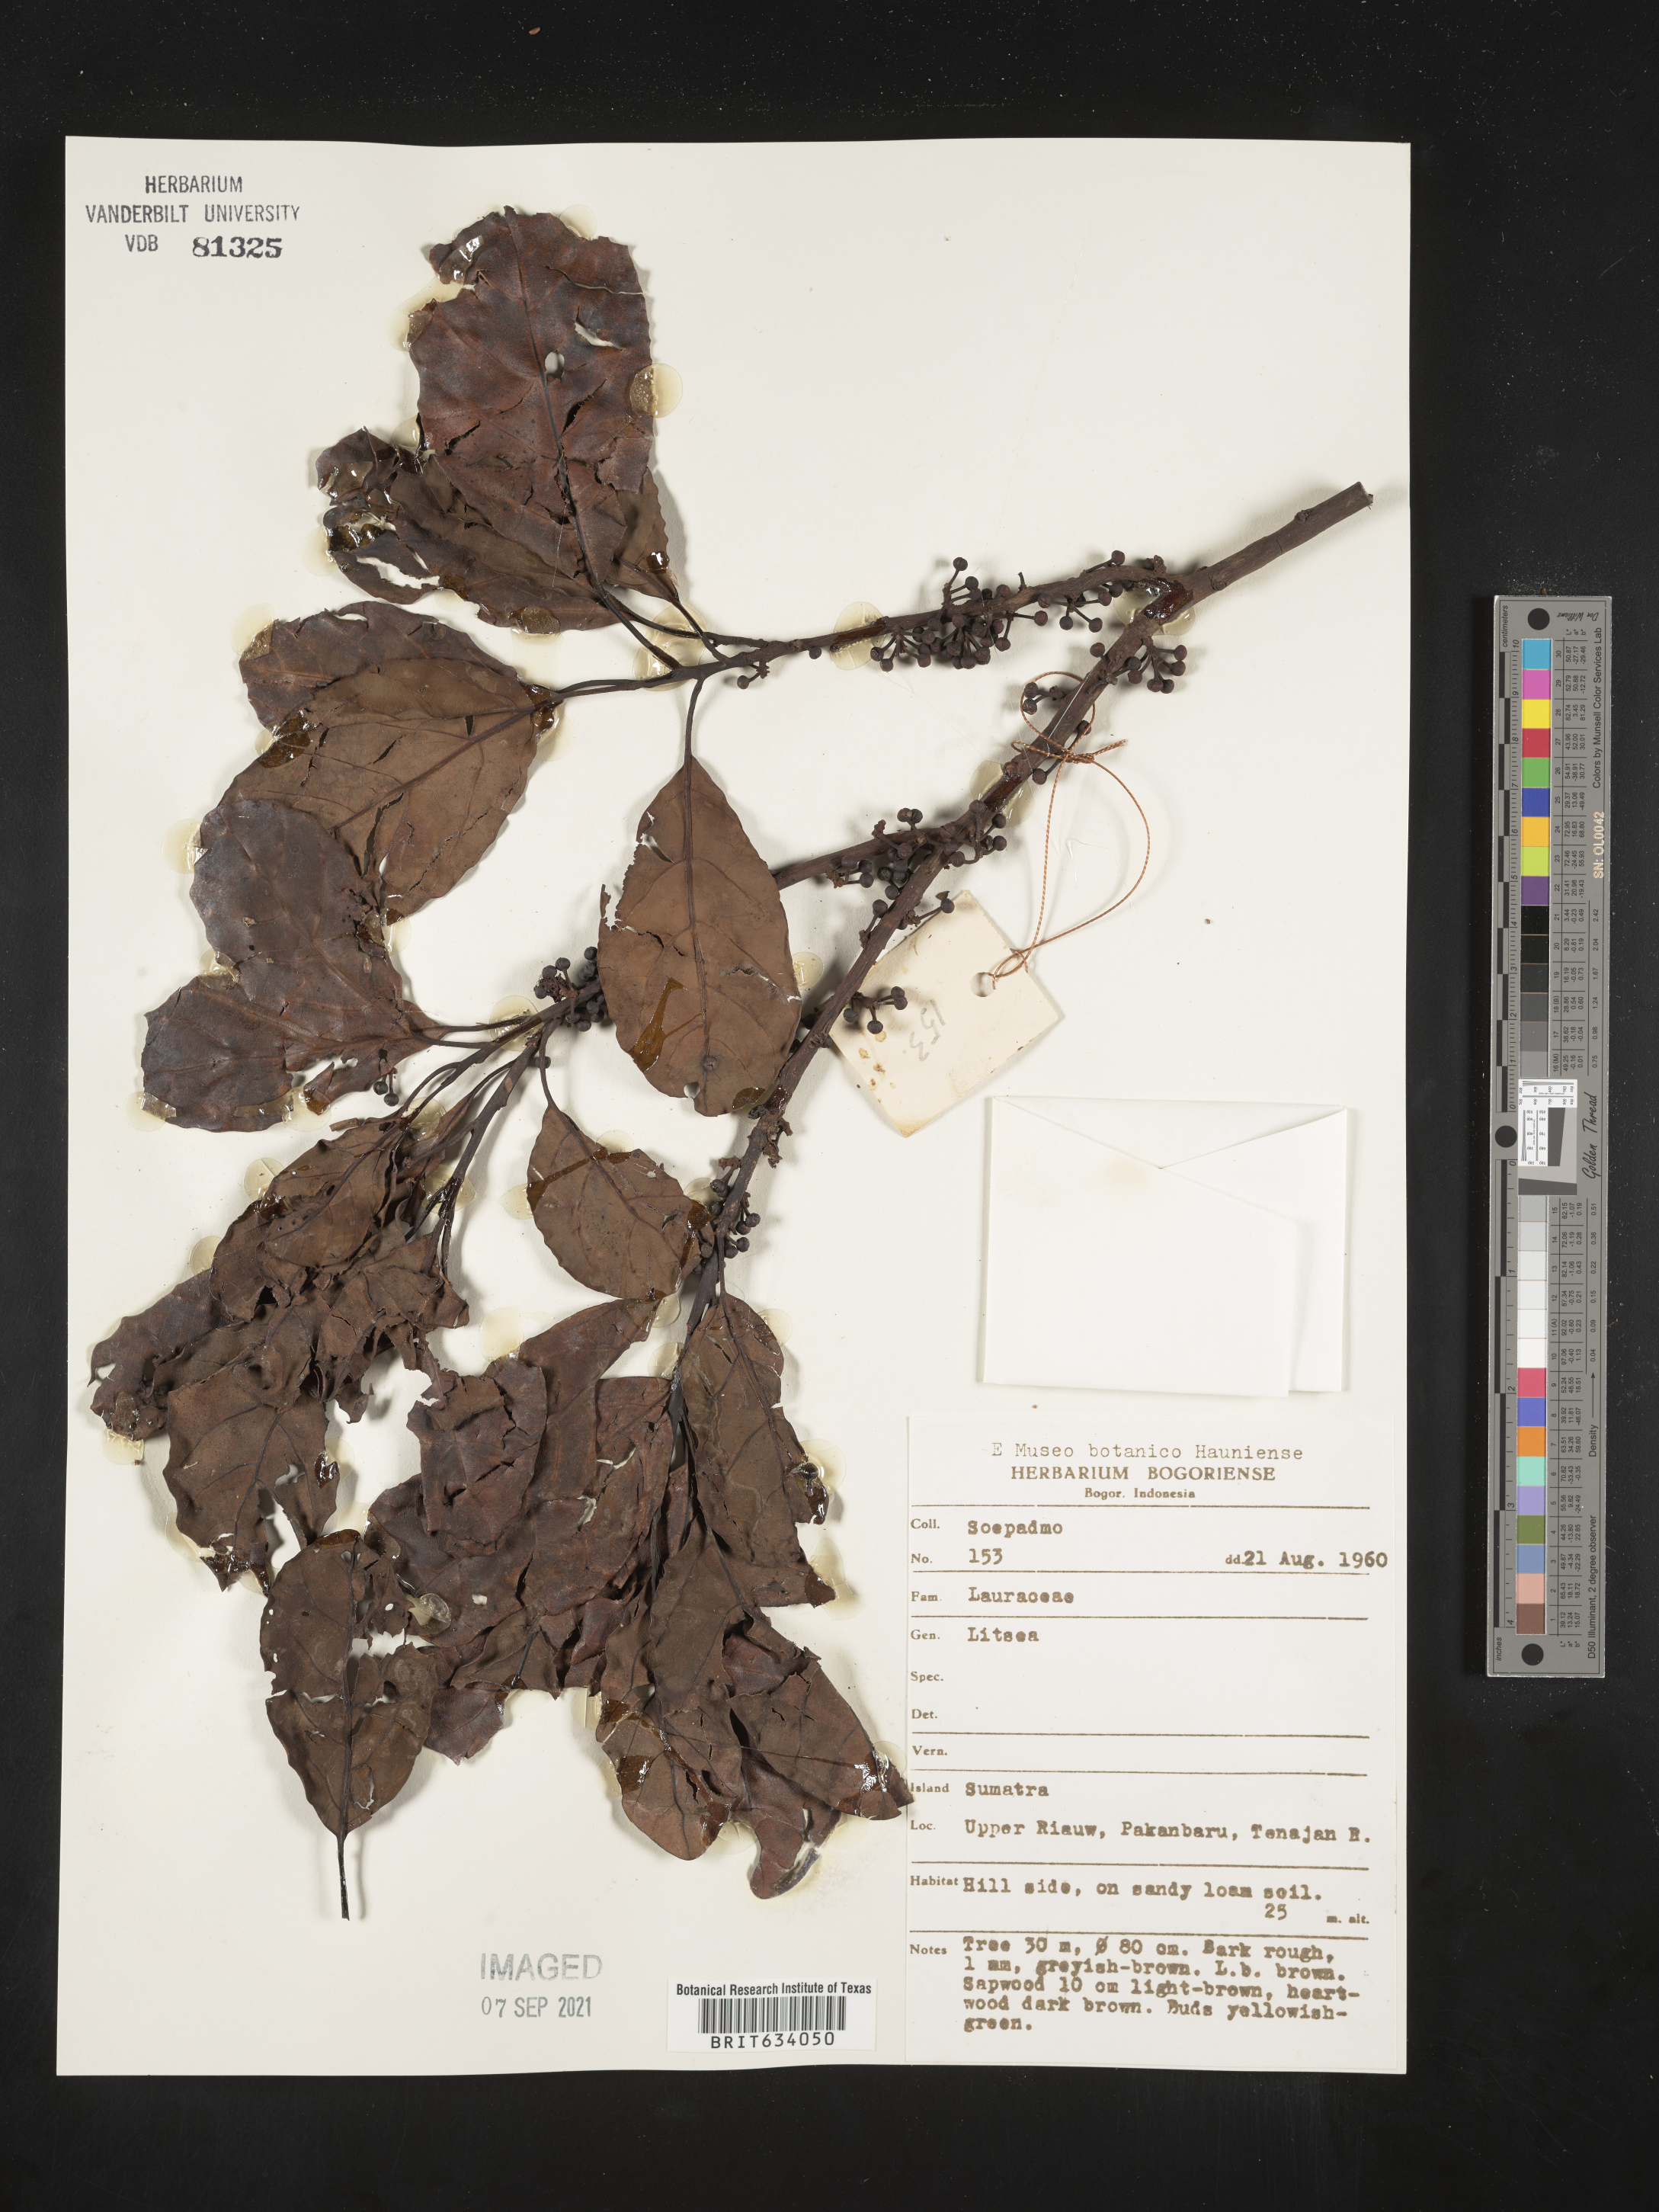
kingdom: Plantae
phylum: Tracheophyta
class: Magnoliopsida
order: Laurales
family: Lauraceae
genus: Litsea
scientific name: Litsea
